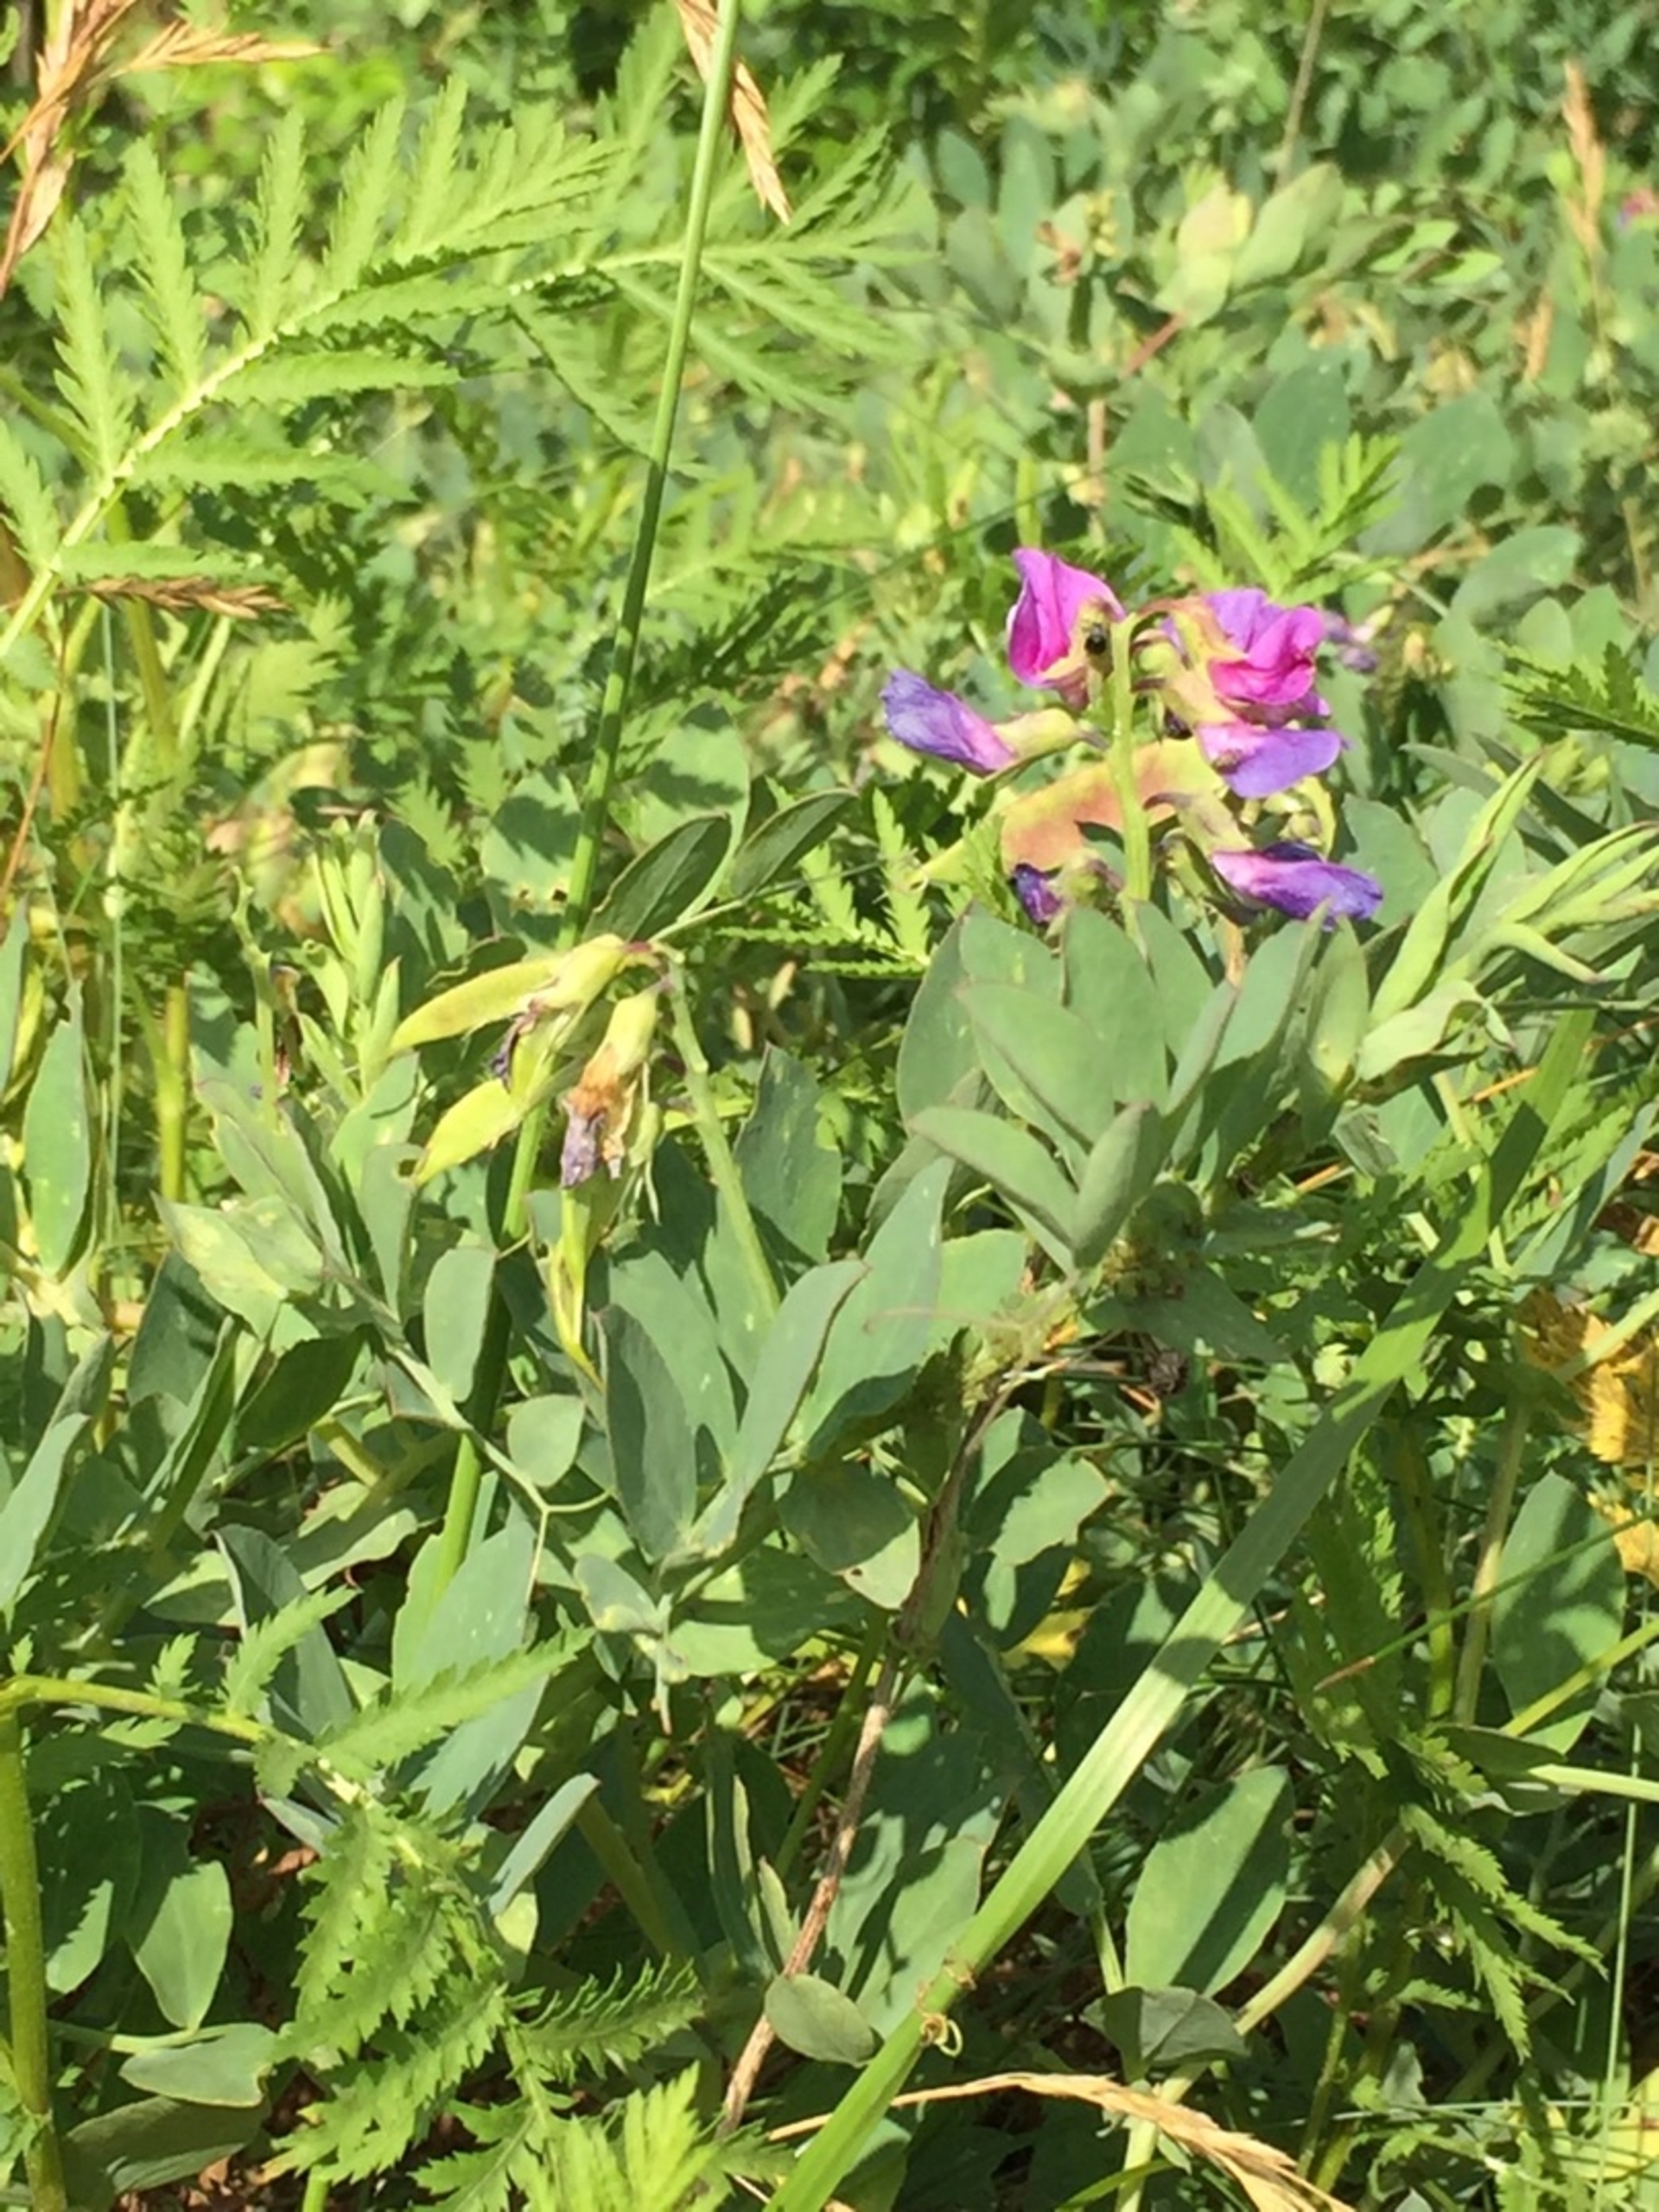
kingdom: Plantae
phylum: Tracheophyta
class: Magnoliopsida
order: Fabales
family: Fabaceae
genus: Lathyrus
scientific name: Lathyrus japonicus
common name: Strand-fladbælg
